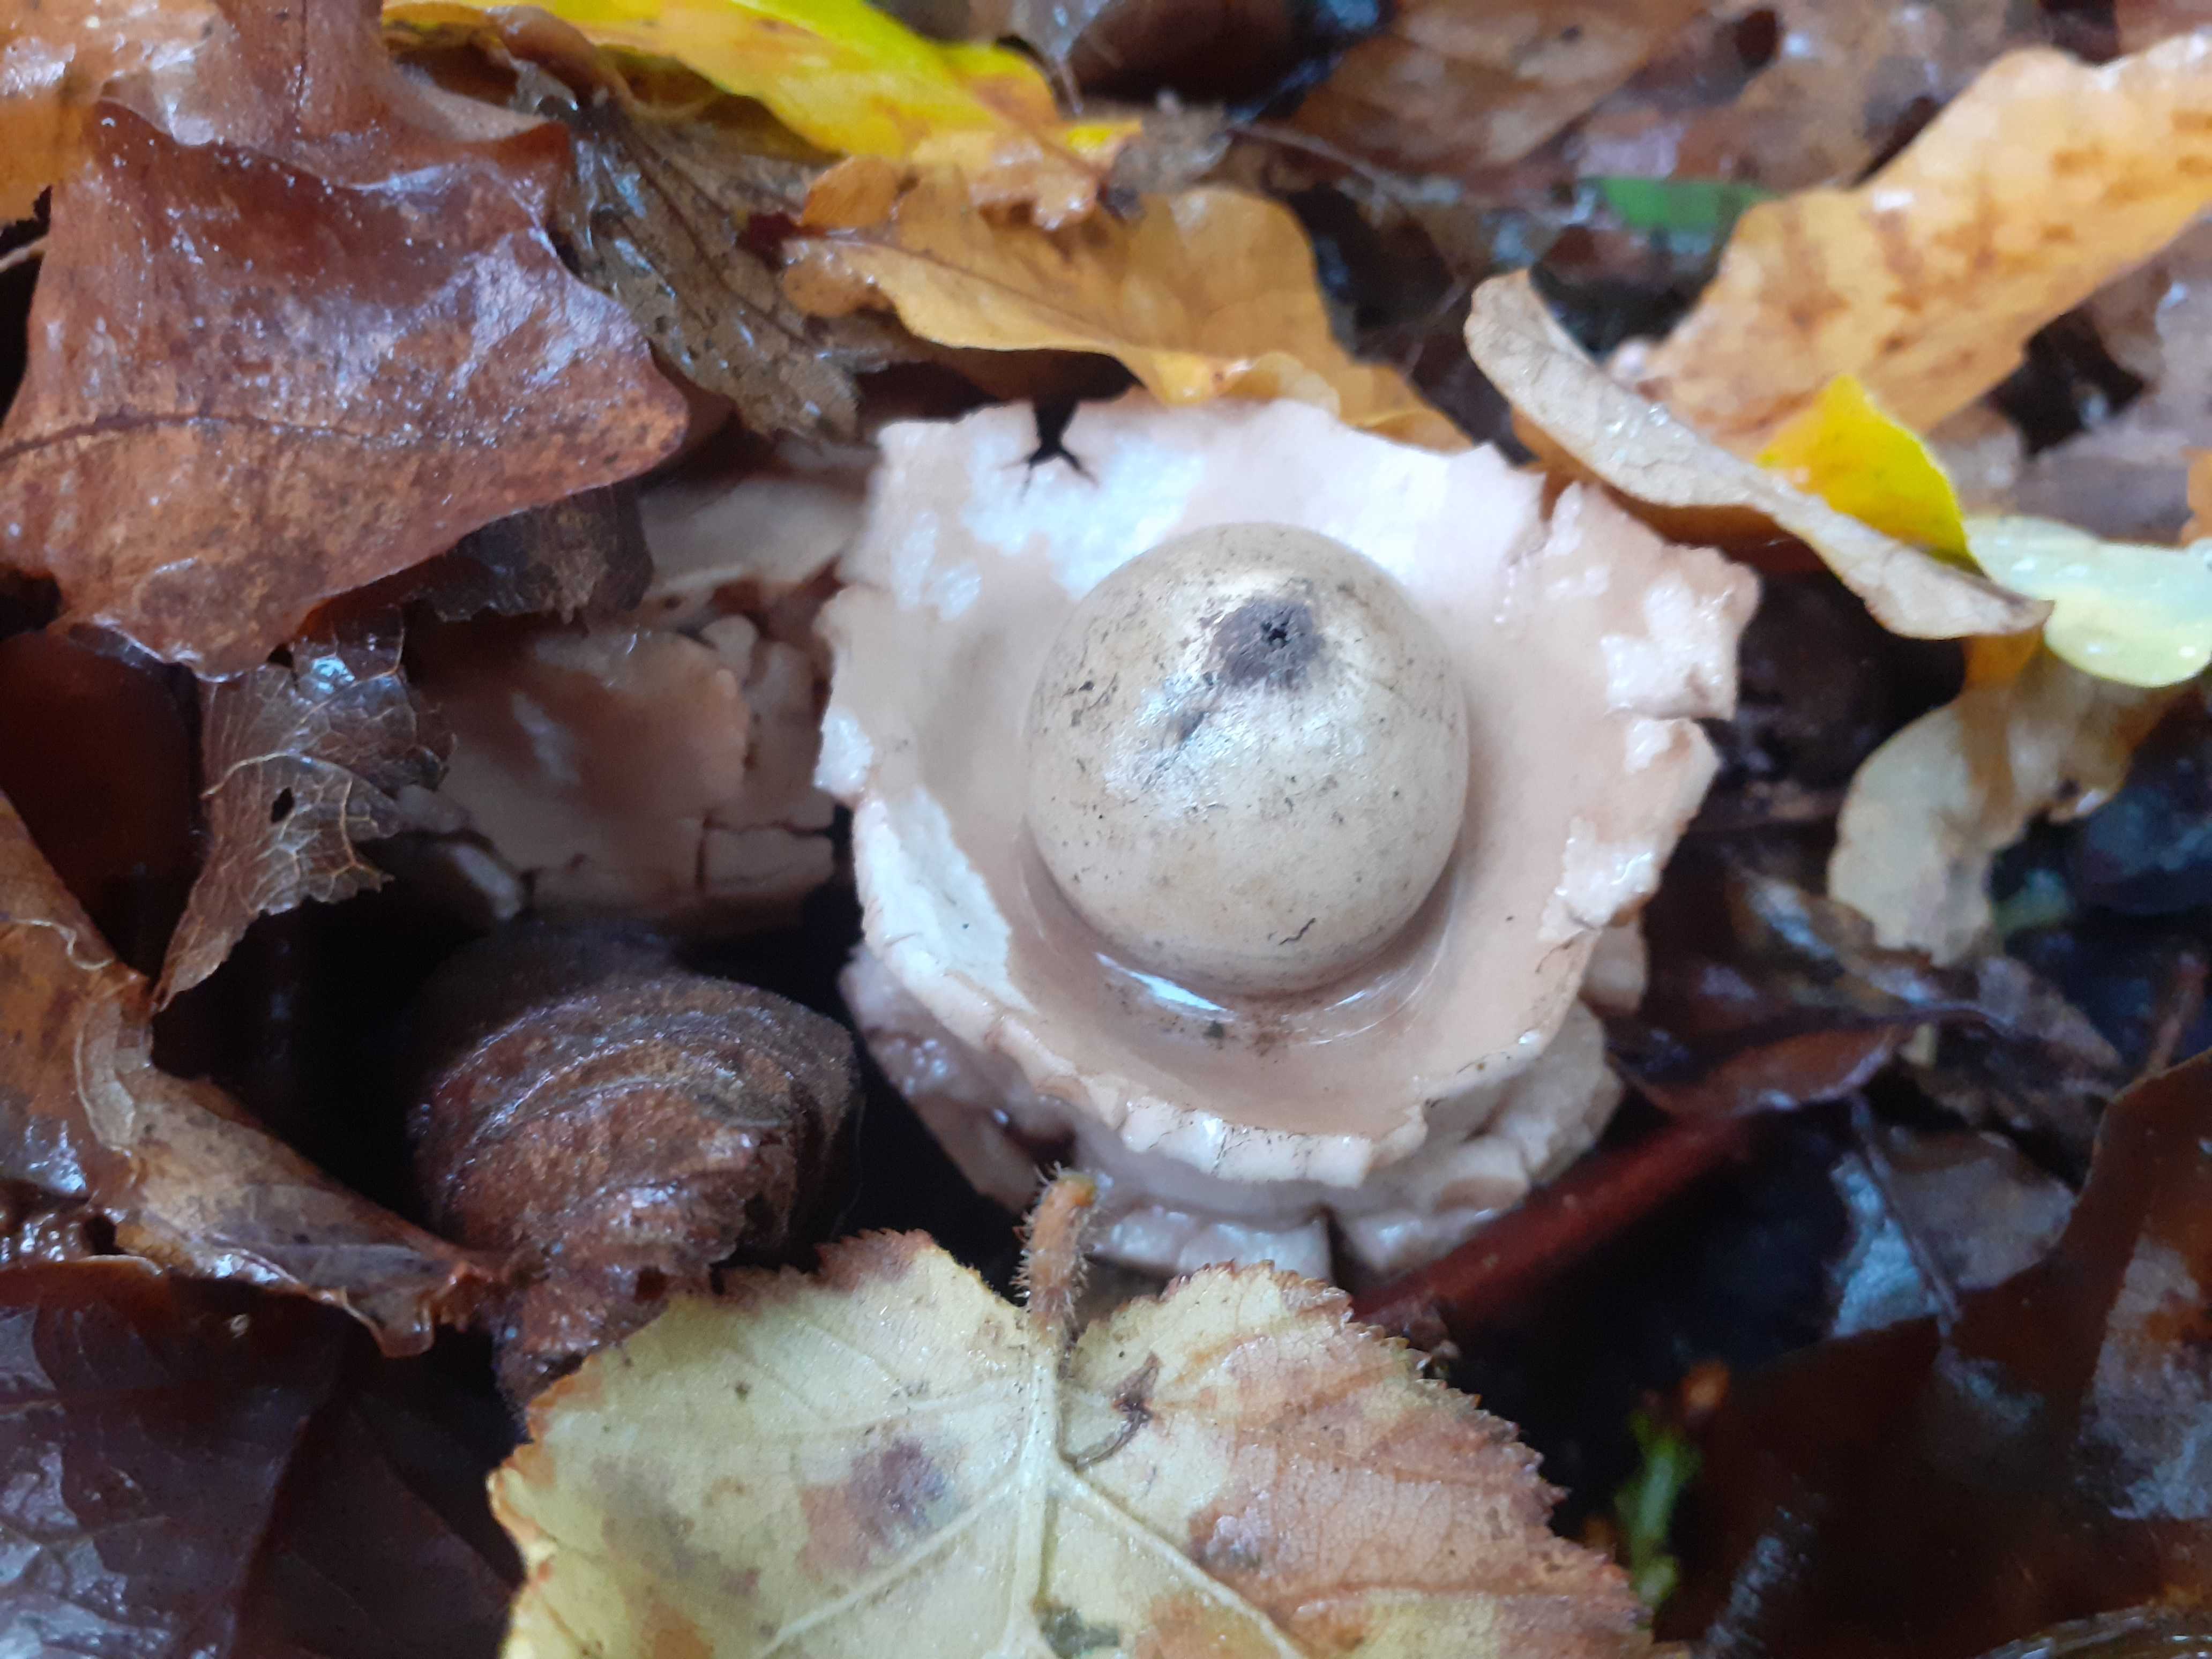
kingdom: Fungi
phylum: Basidiomycota
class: Agaricomycetes
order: Geastrales
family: Geastraceae
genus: Geastrum
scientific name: Geastrum michelianum
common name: kødet stjernebold
